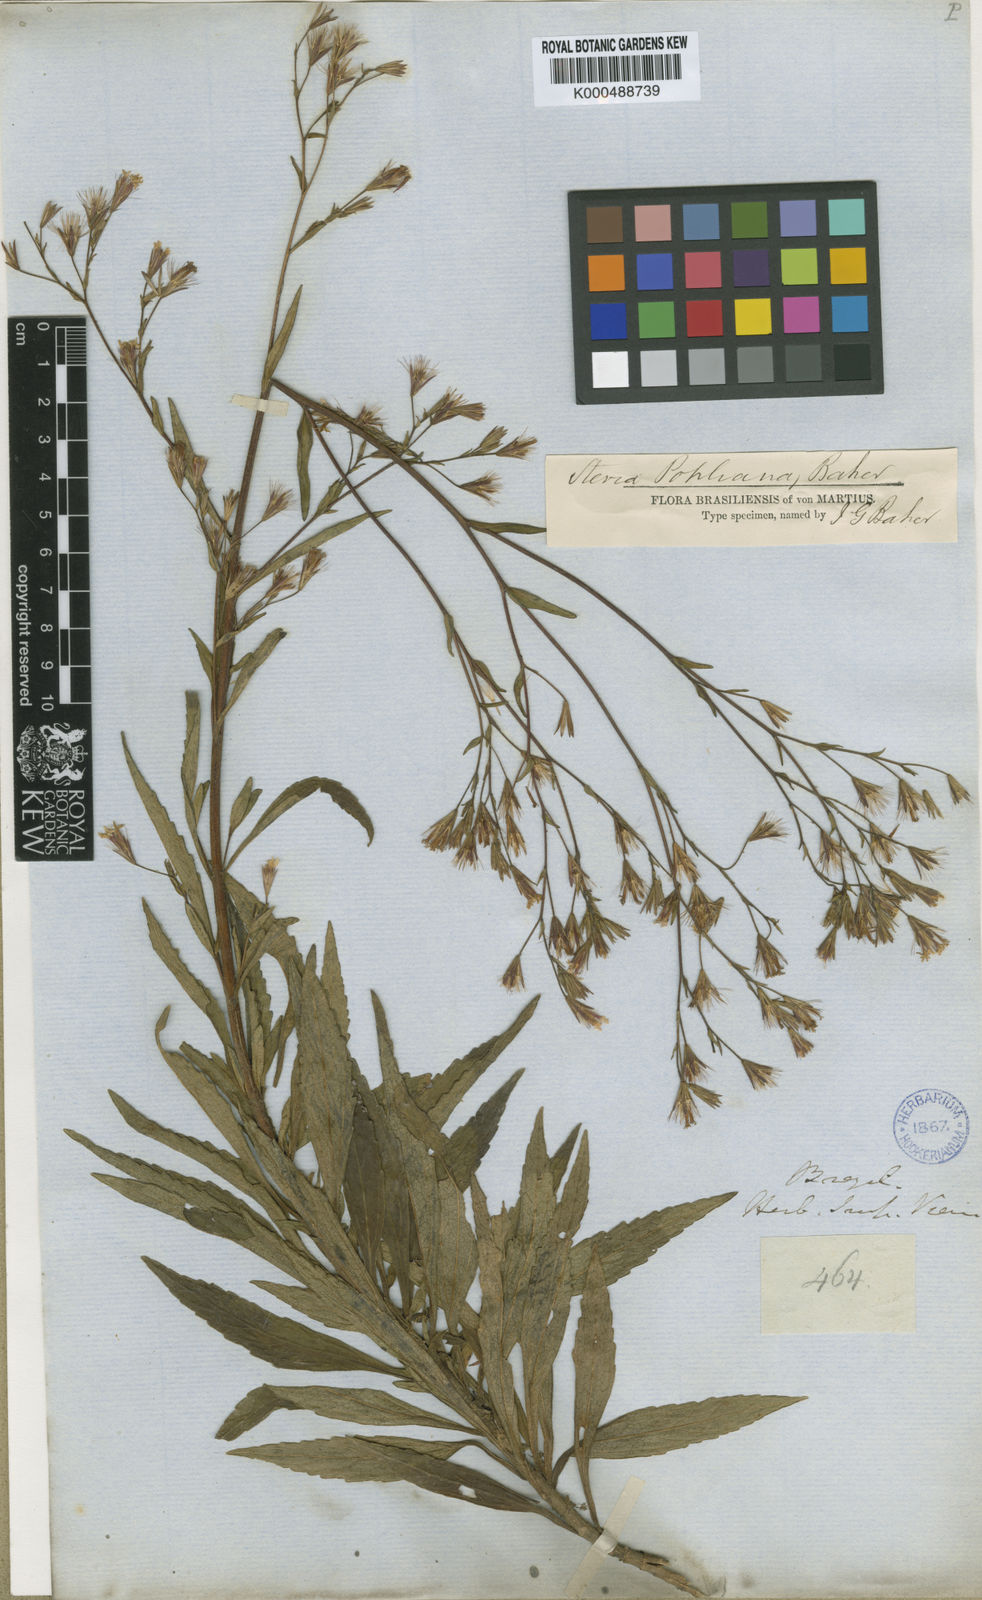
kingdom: Plantae
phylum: Tracheophyta
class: Magnoliopsida
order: Asterales
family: Asteraceae
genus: Stevia
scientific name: Stevia pohliana
